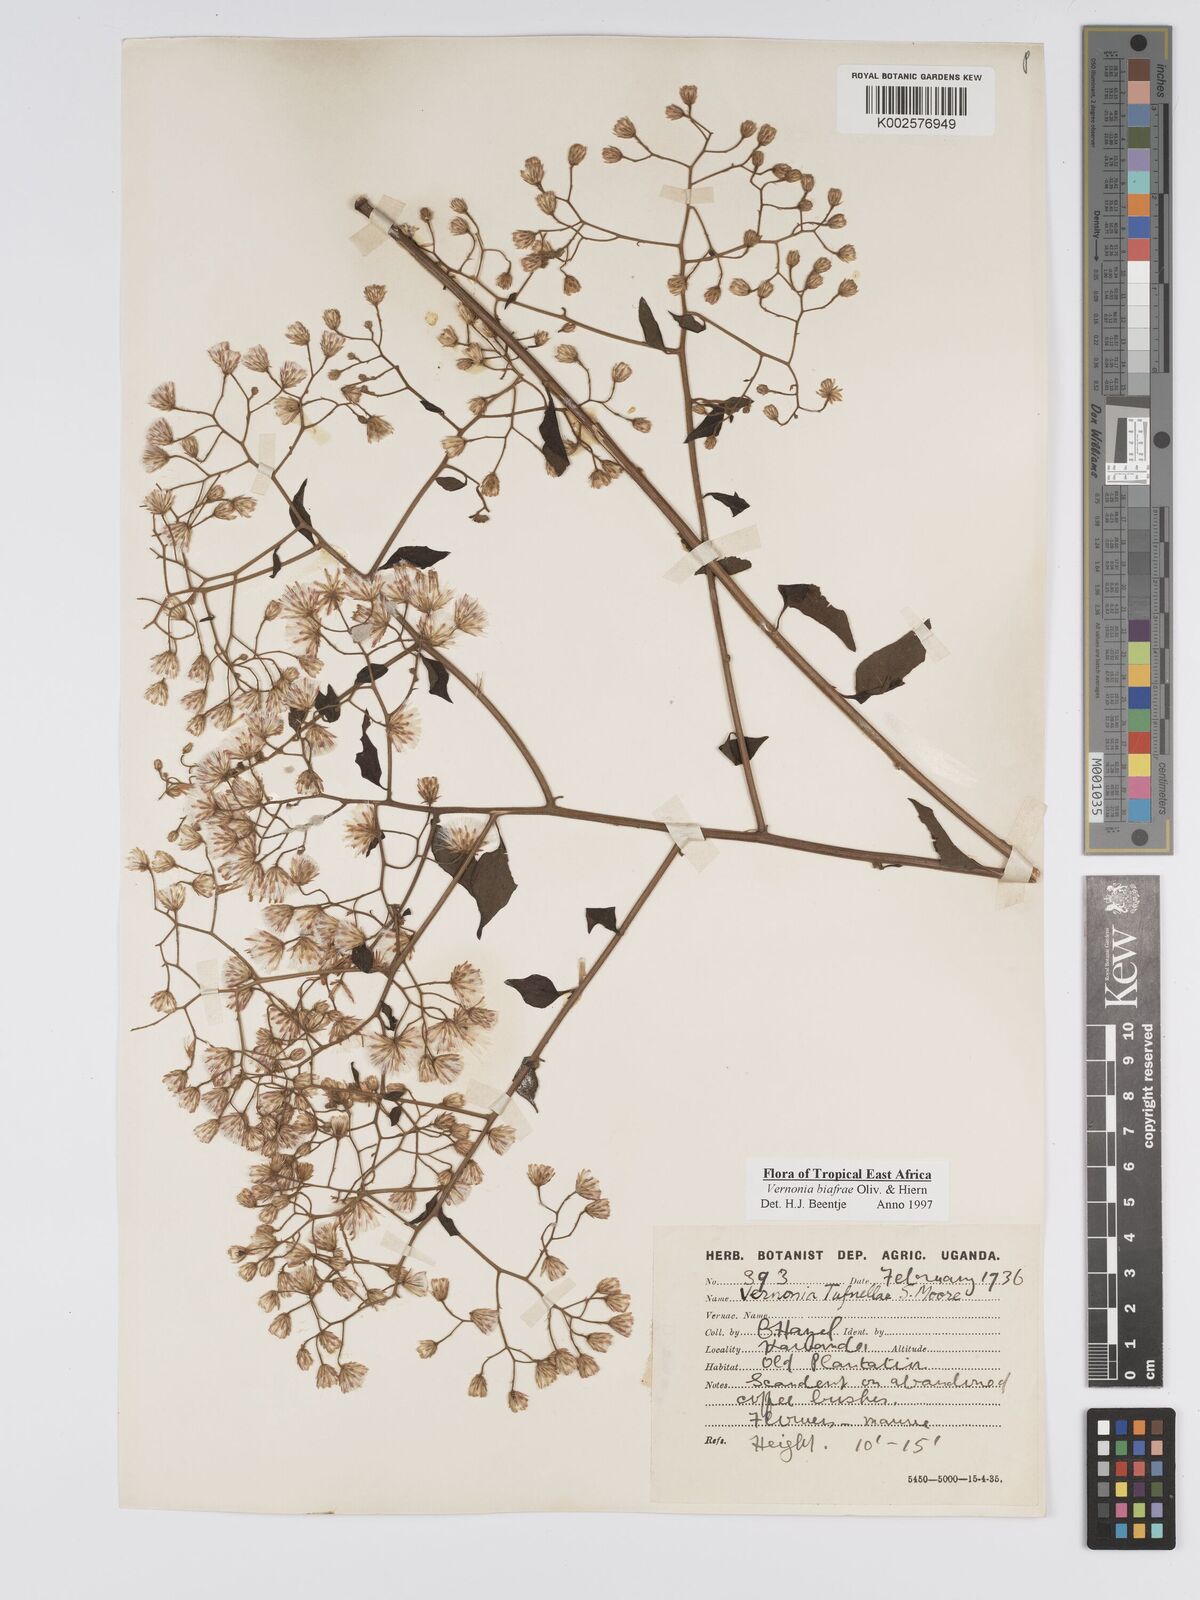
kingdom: Plantae
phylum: Tracheophyta
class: Magnoliopsida
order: Asterales
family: Asteraceae
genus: Distephanus
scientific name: Distephanus biafrae
